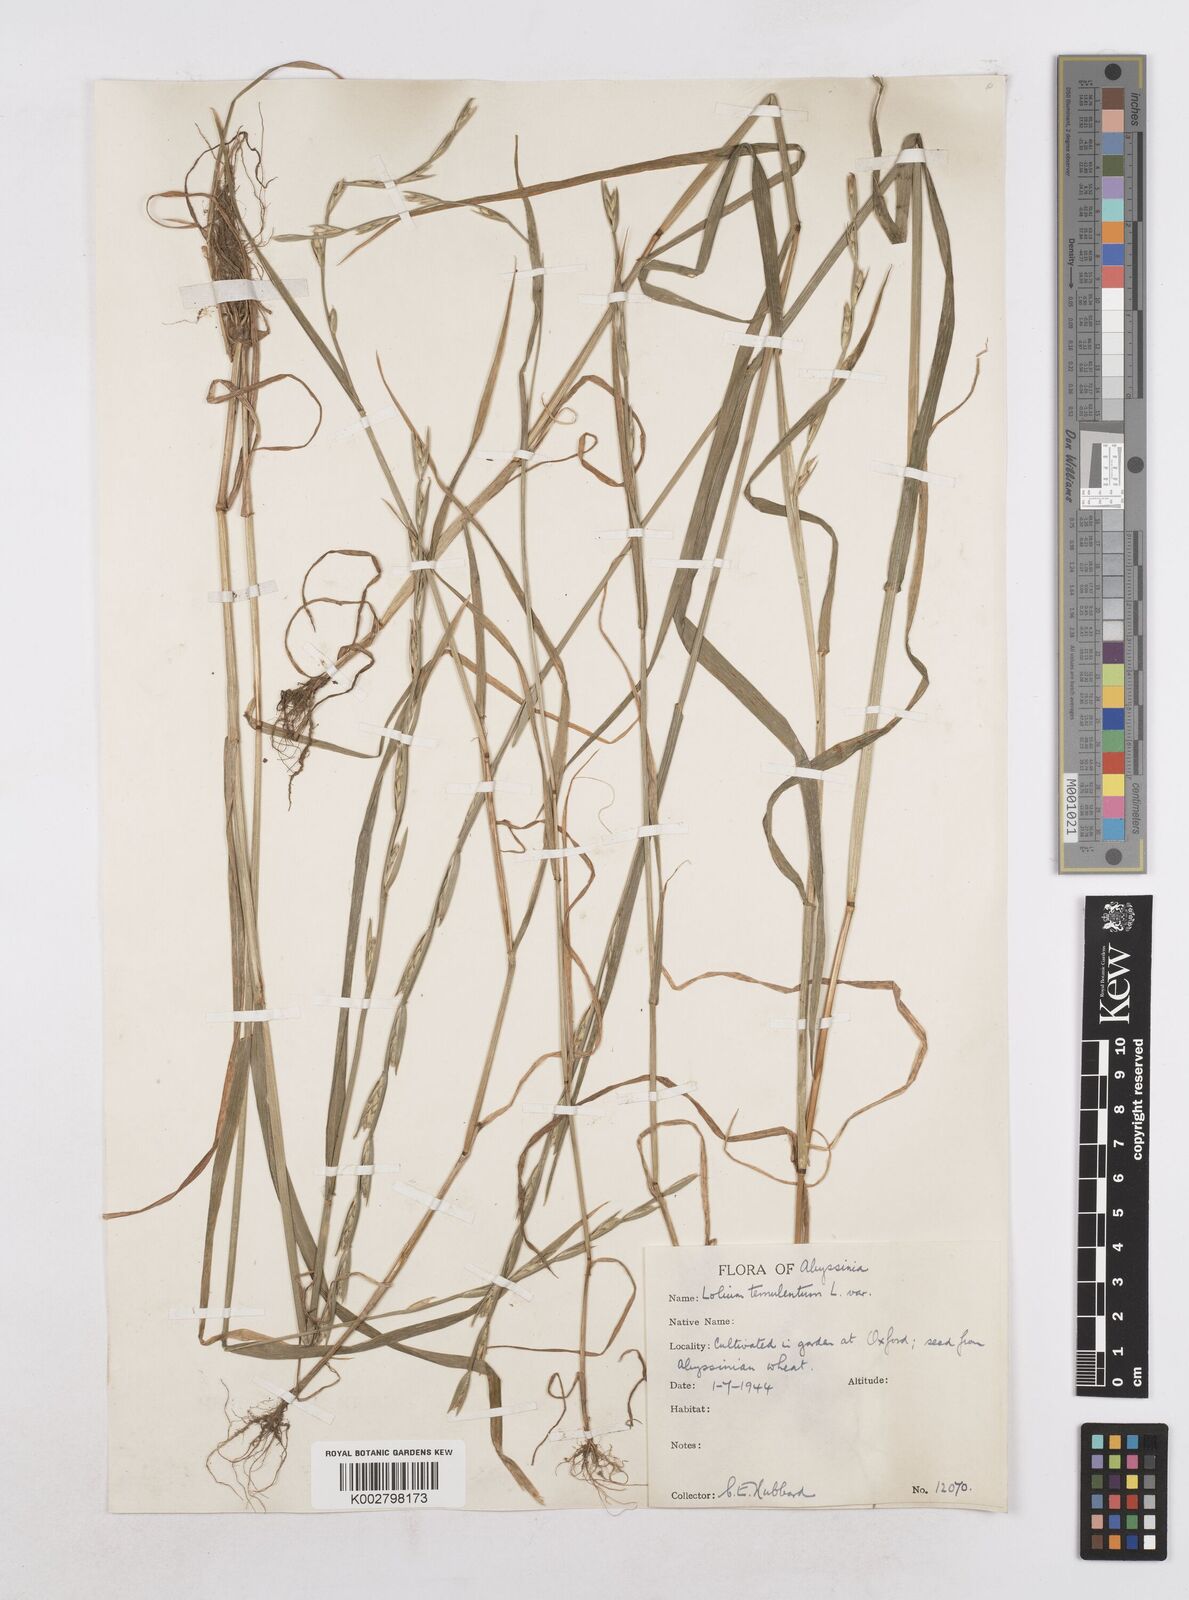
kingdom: Plantae
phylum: Tracheophyta
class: Liliopsida
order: Poales
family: Poaceae
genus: Lolium
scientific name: Lolium temulentum
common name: Darnel
